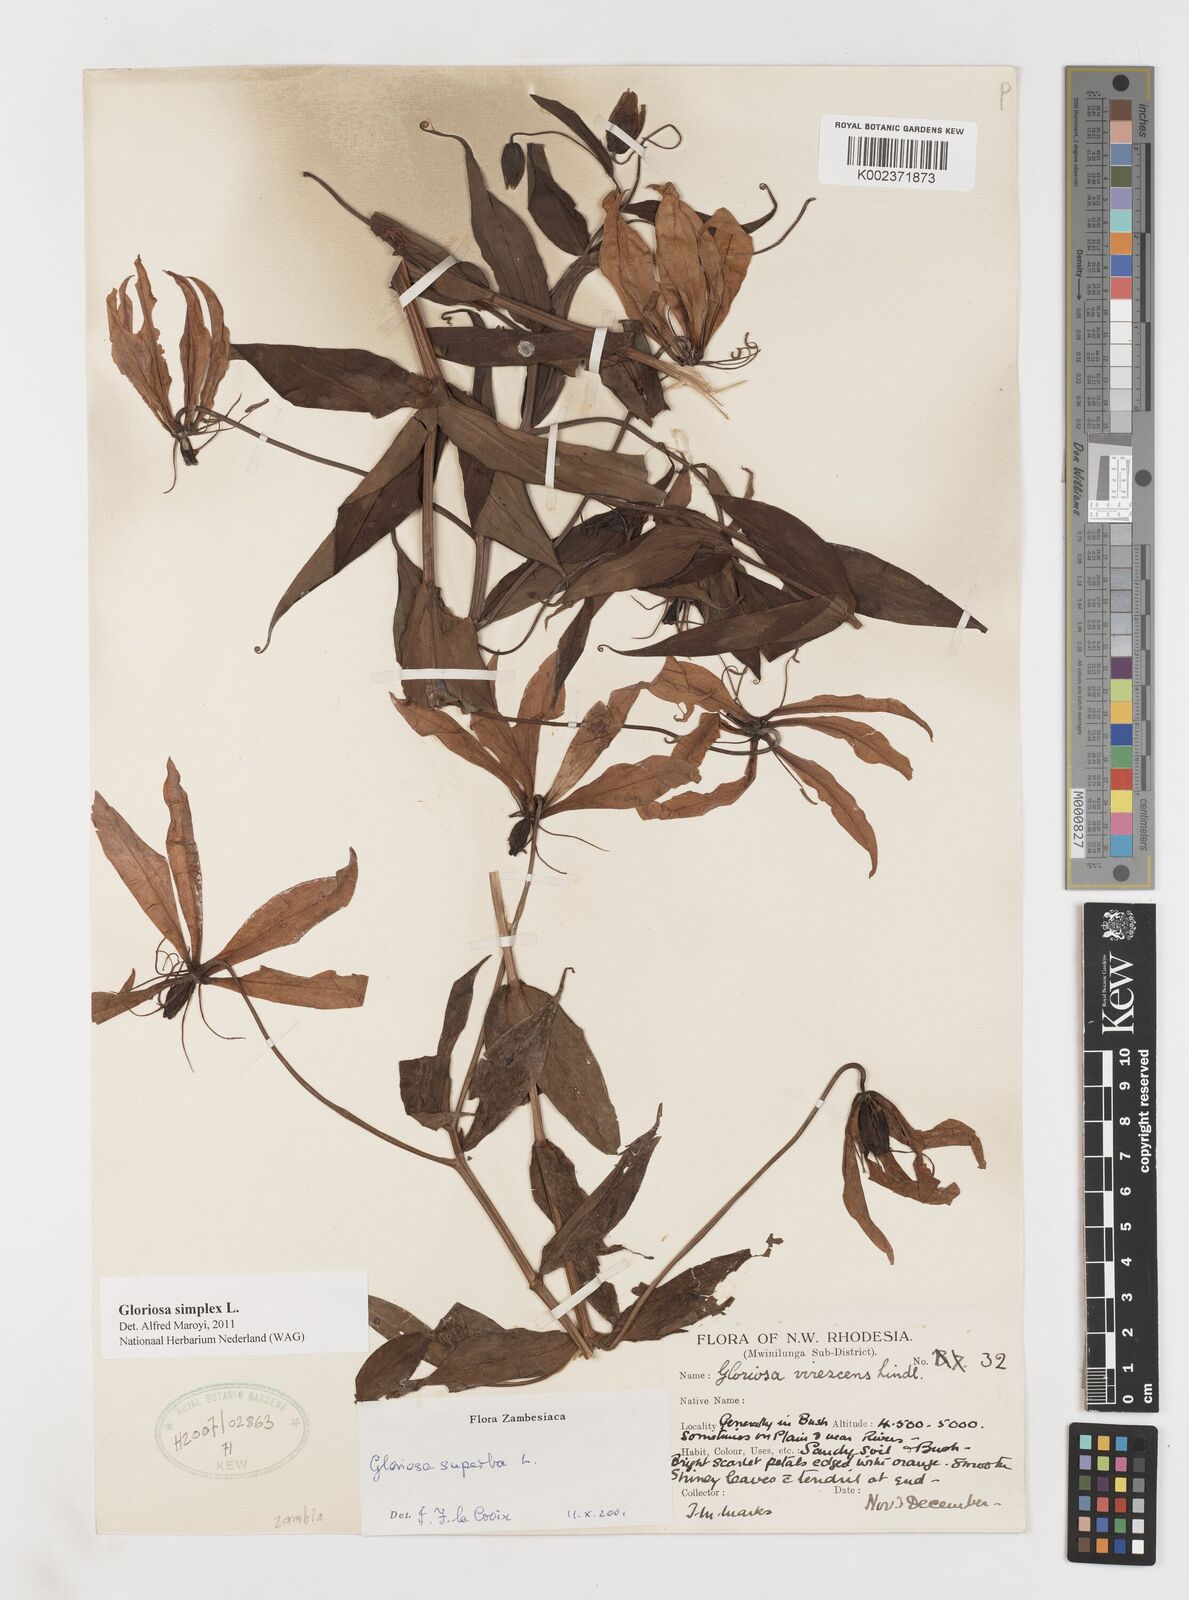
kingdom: Plantae
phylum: Tracheophyta
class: Liliopsida
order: Liliales
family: Colchicaceae
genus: Gloriosa
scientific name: Gloriosa simplex
